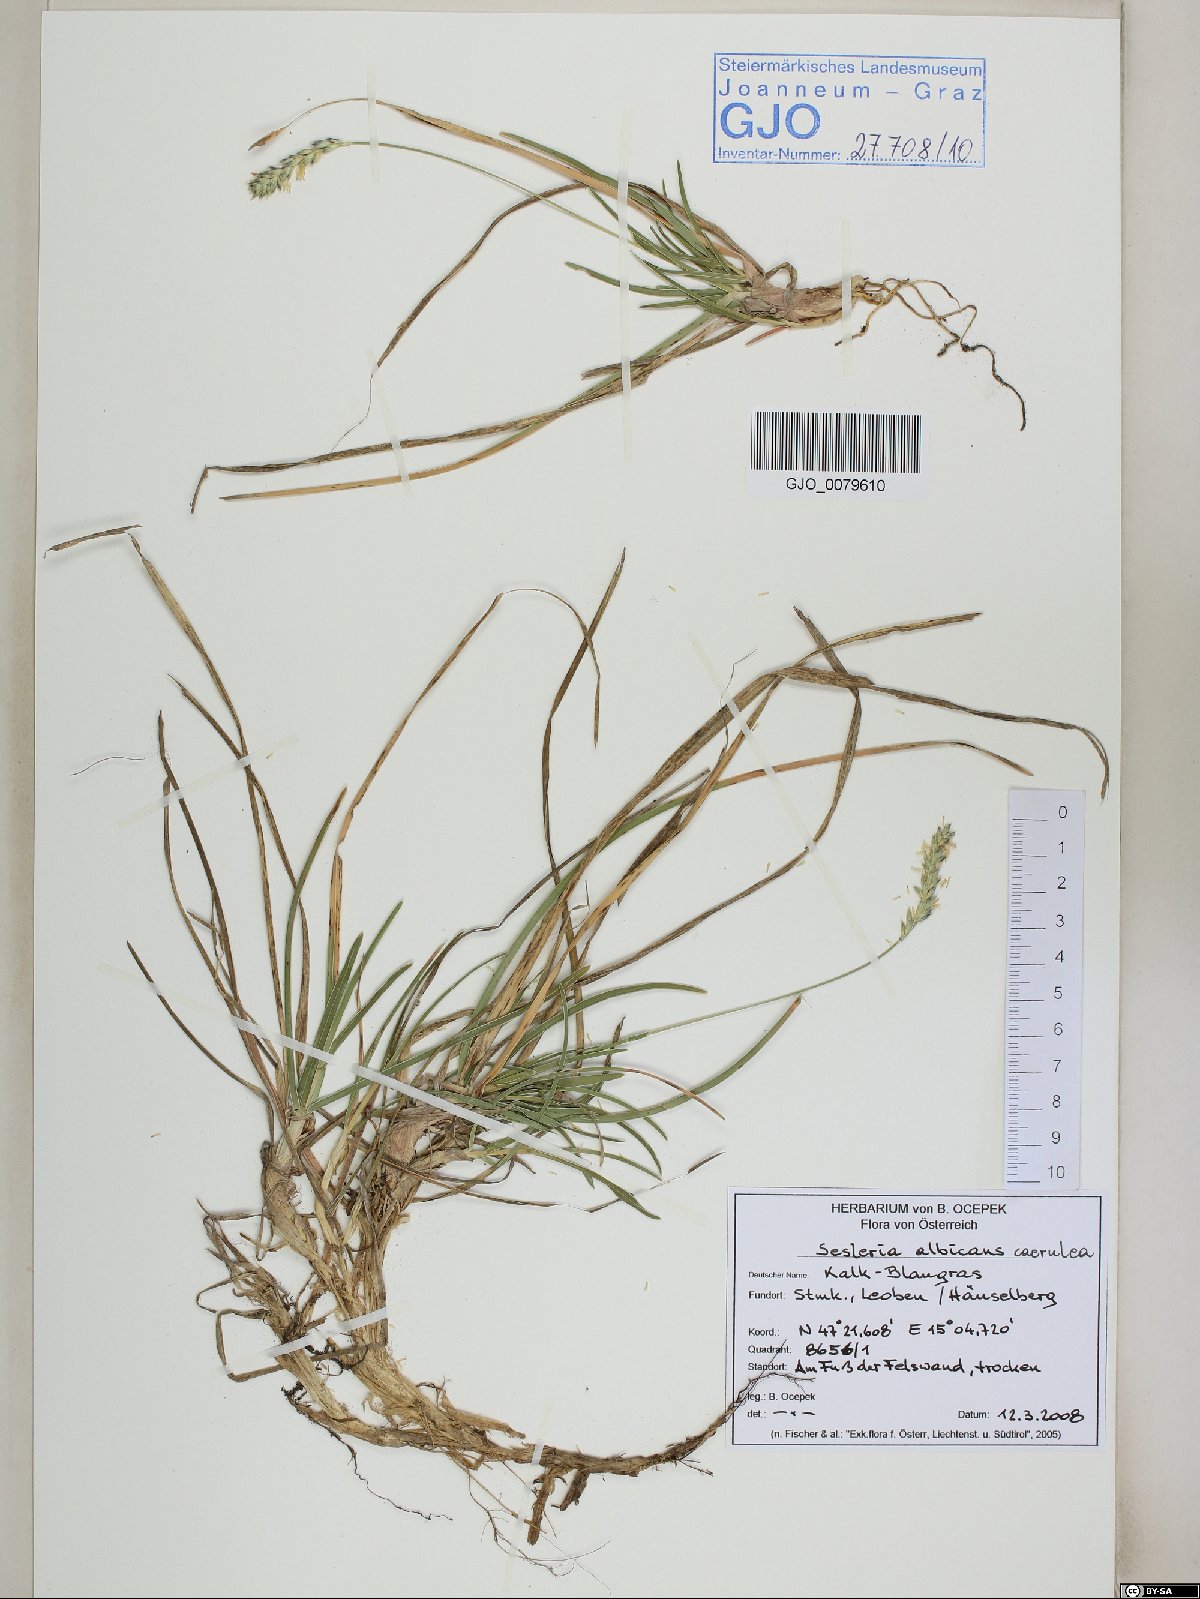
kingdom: Plantae
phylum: Tracheophyta
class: Liliopsida
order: Poales
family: Poaceae
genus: Sesleria
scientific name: Sesleria albicans
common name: Blue moor-grass
